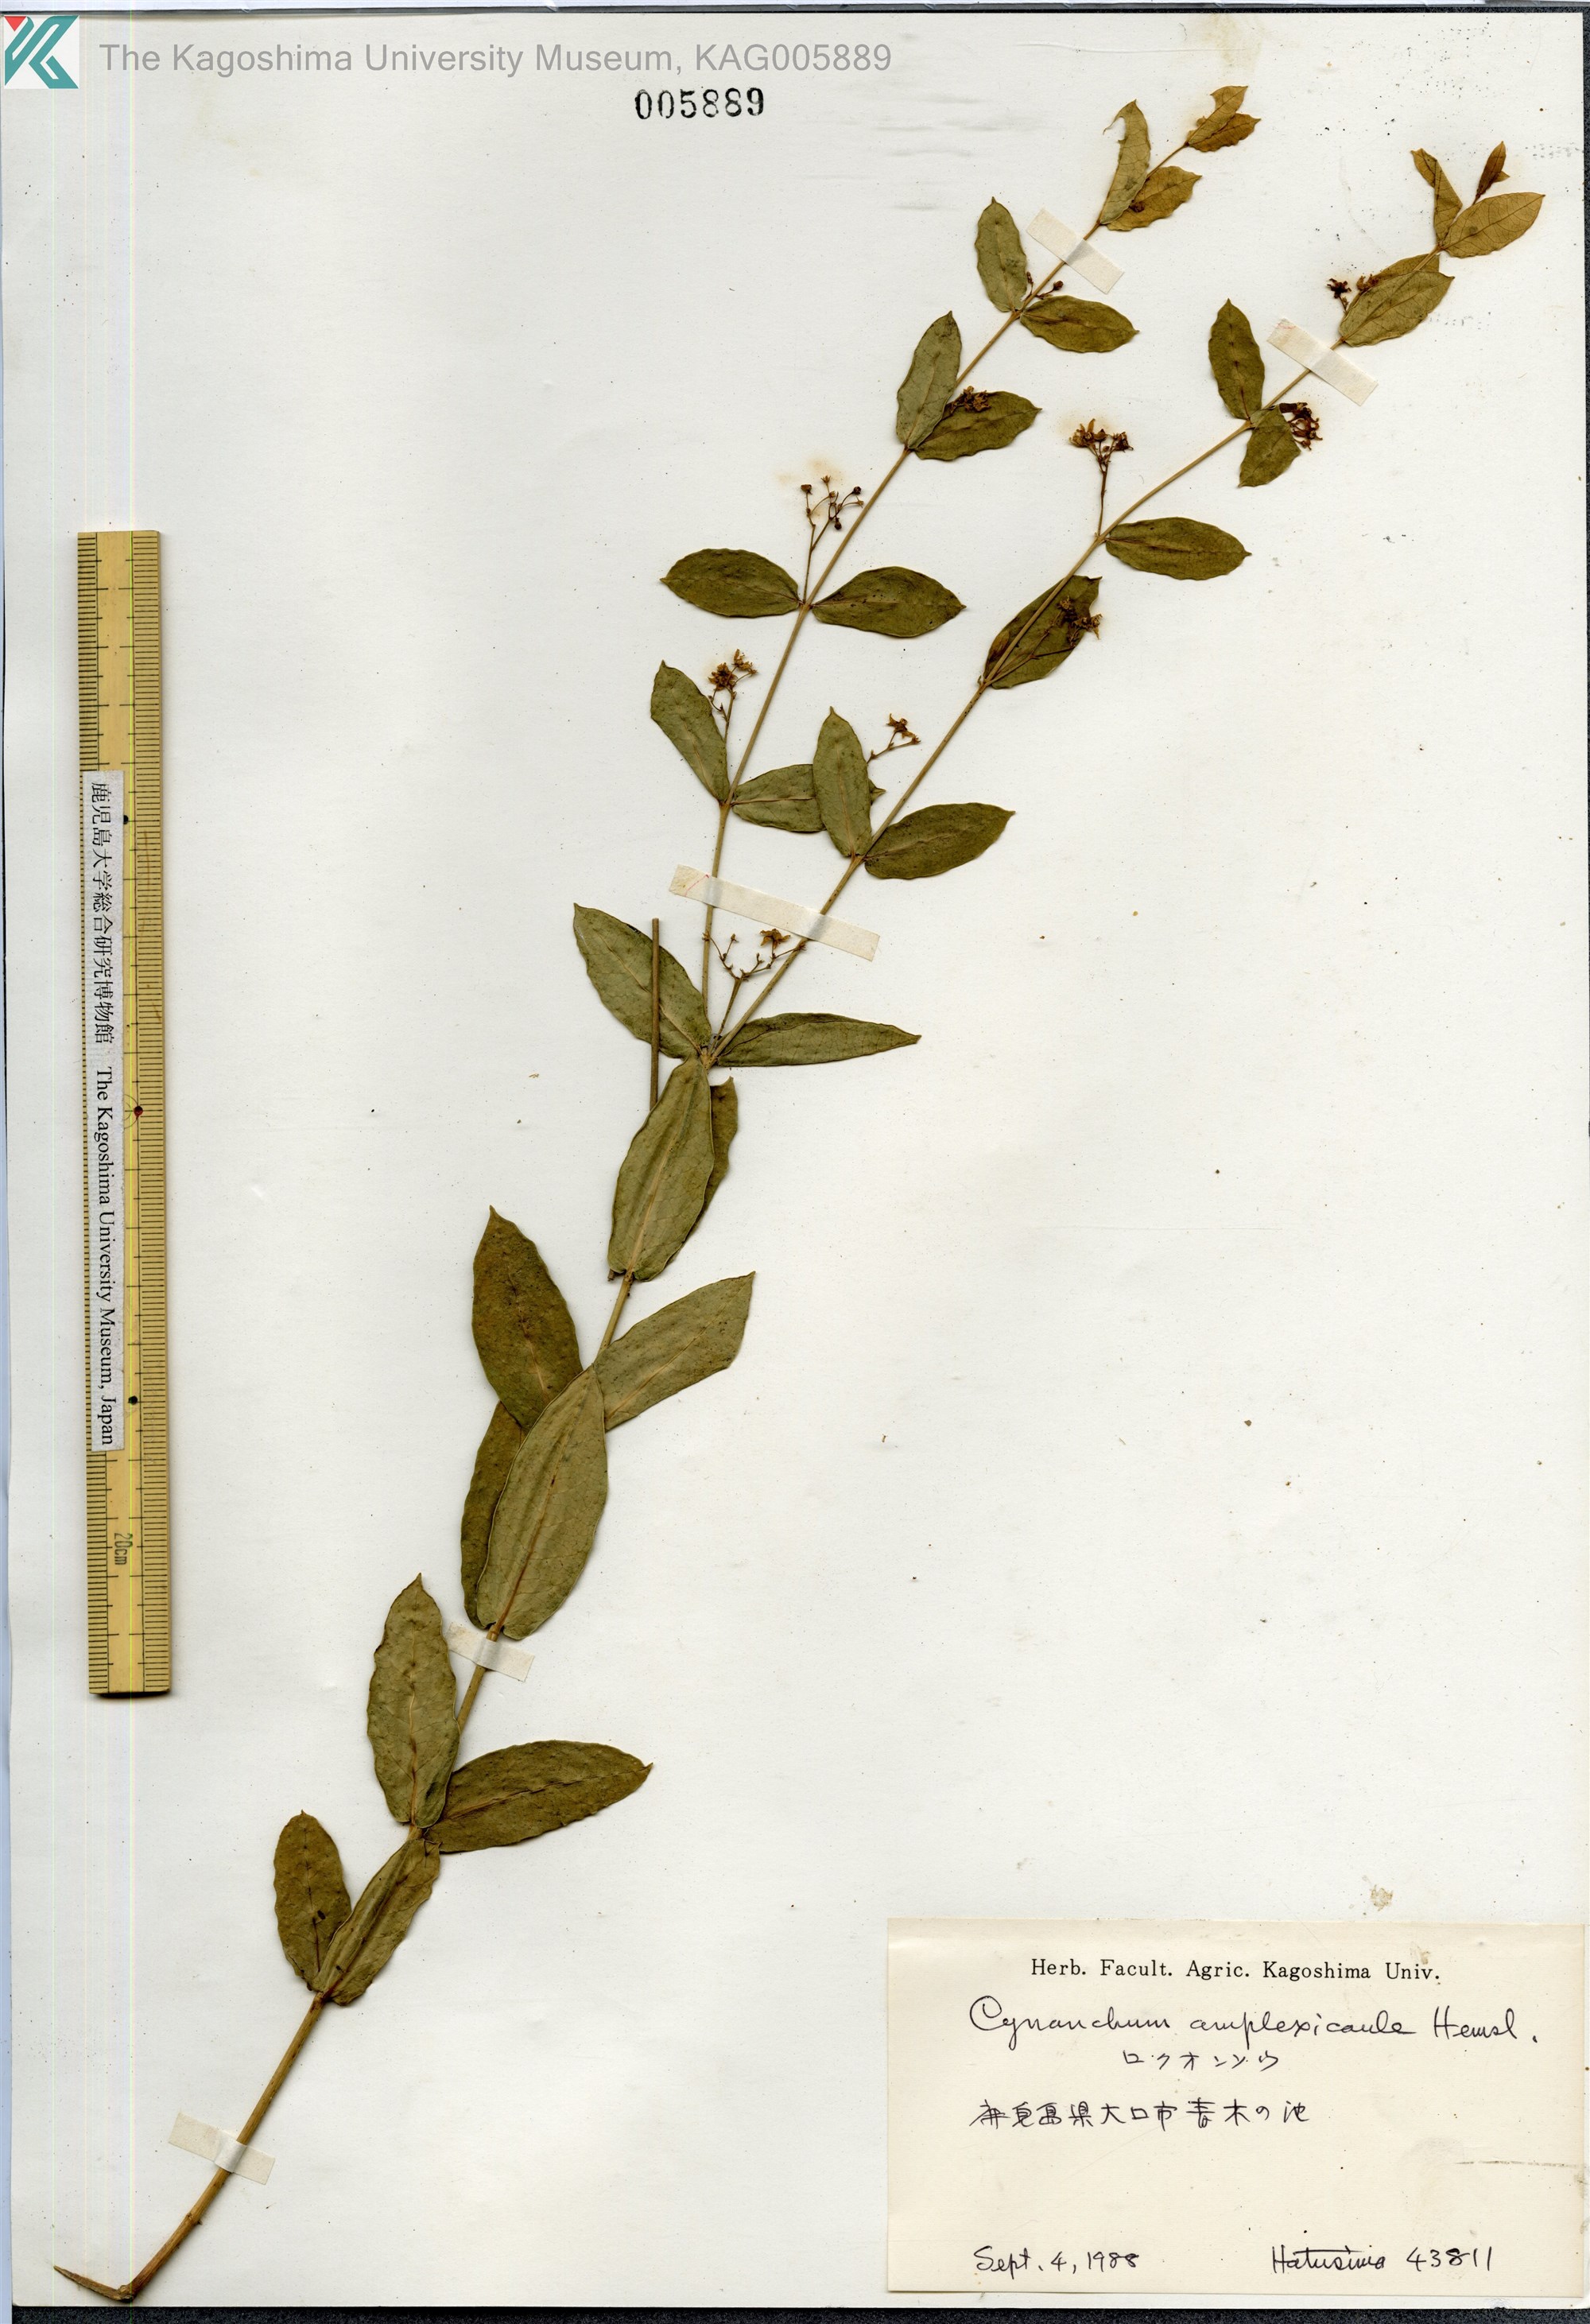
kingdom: Plantae
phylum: Tracheophyta
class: Magnoliopsida
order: Gentianales
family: Apocynaceae
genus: Vincetoxicum
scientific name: Vincetoxicum amplexicaule
